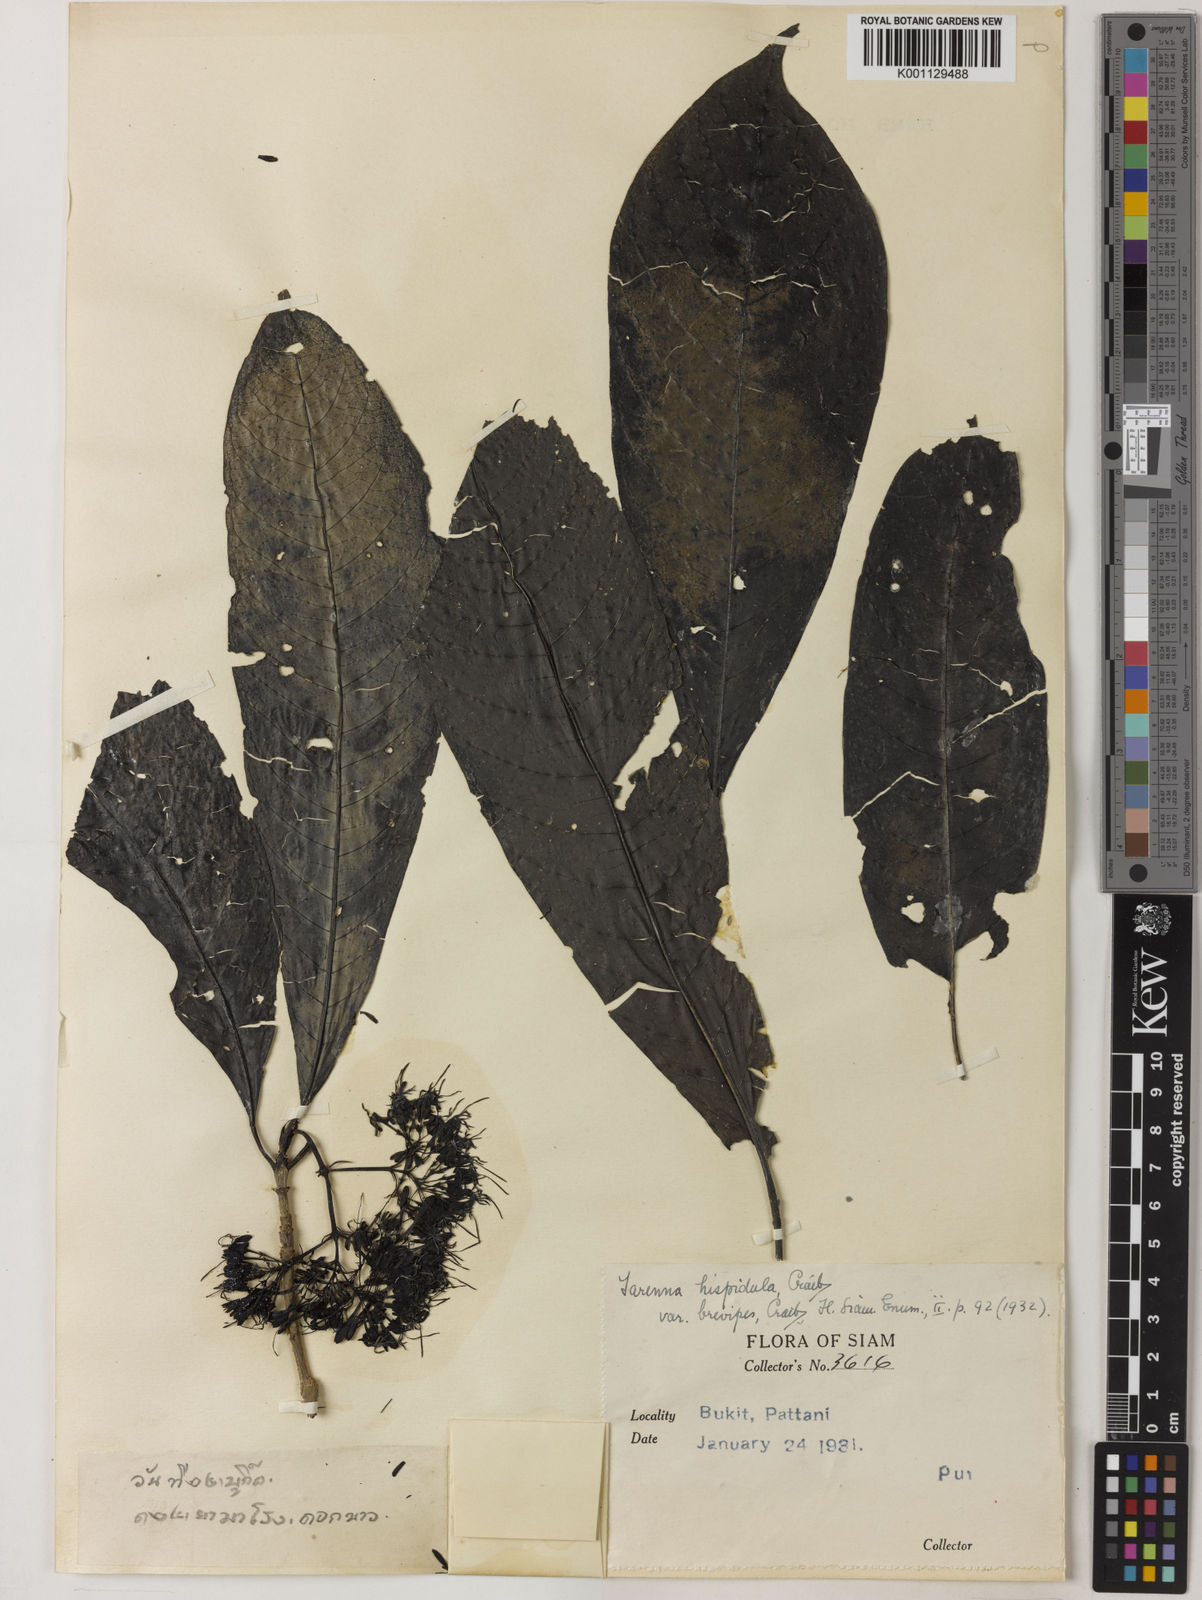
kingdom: Plantae
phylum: Tracheophyta
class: Magnoliopsida
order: Gentianales
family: Rubiaceae
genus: Tarenna
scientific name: Tarenna hispidula
